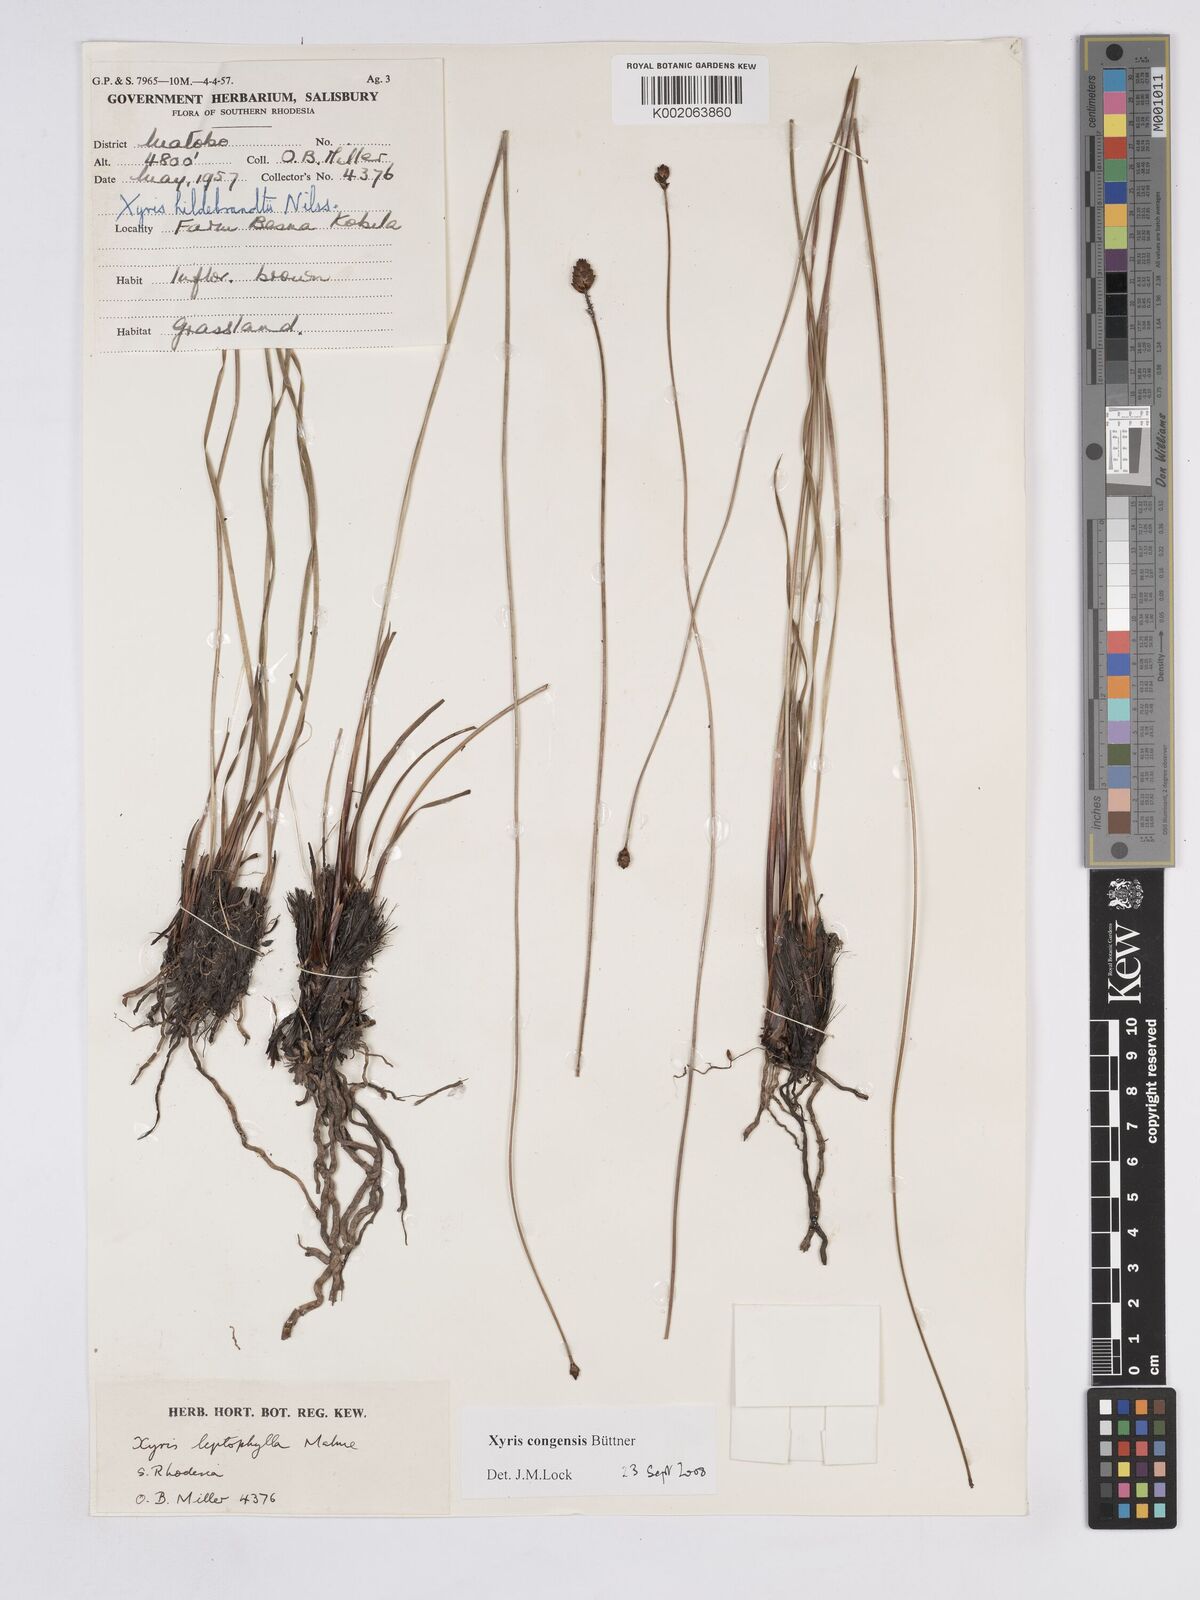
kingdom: Plantae
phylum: Tracheophyta
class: Liliopsida
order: Poales
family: Xyridaceae
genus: Xyris
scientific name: Xyris congensis
